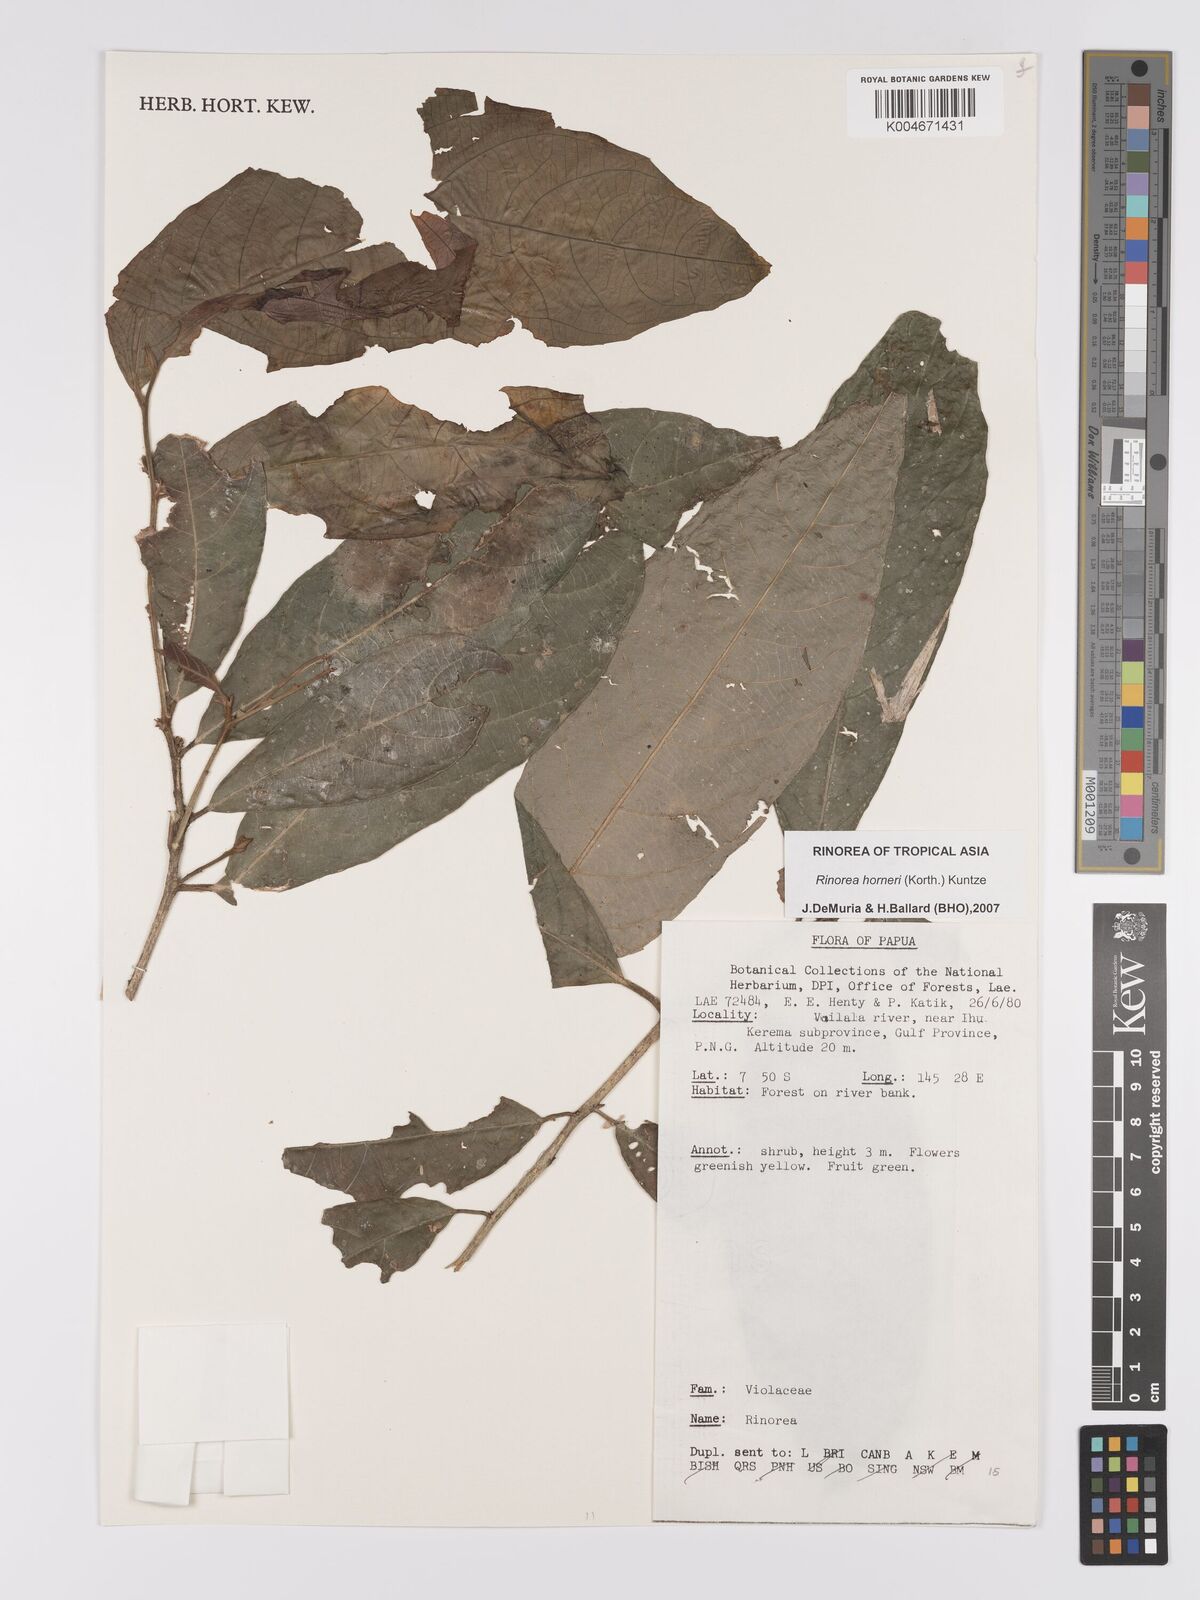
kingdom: Plantae
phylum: Tracheophyta
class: Magnoliopsida
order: Malpighiales
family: Violaceae
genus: Rinorea
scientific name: Rinorea horneri
